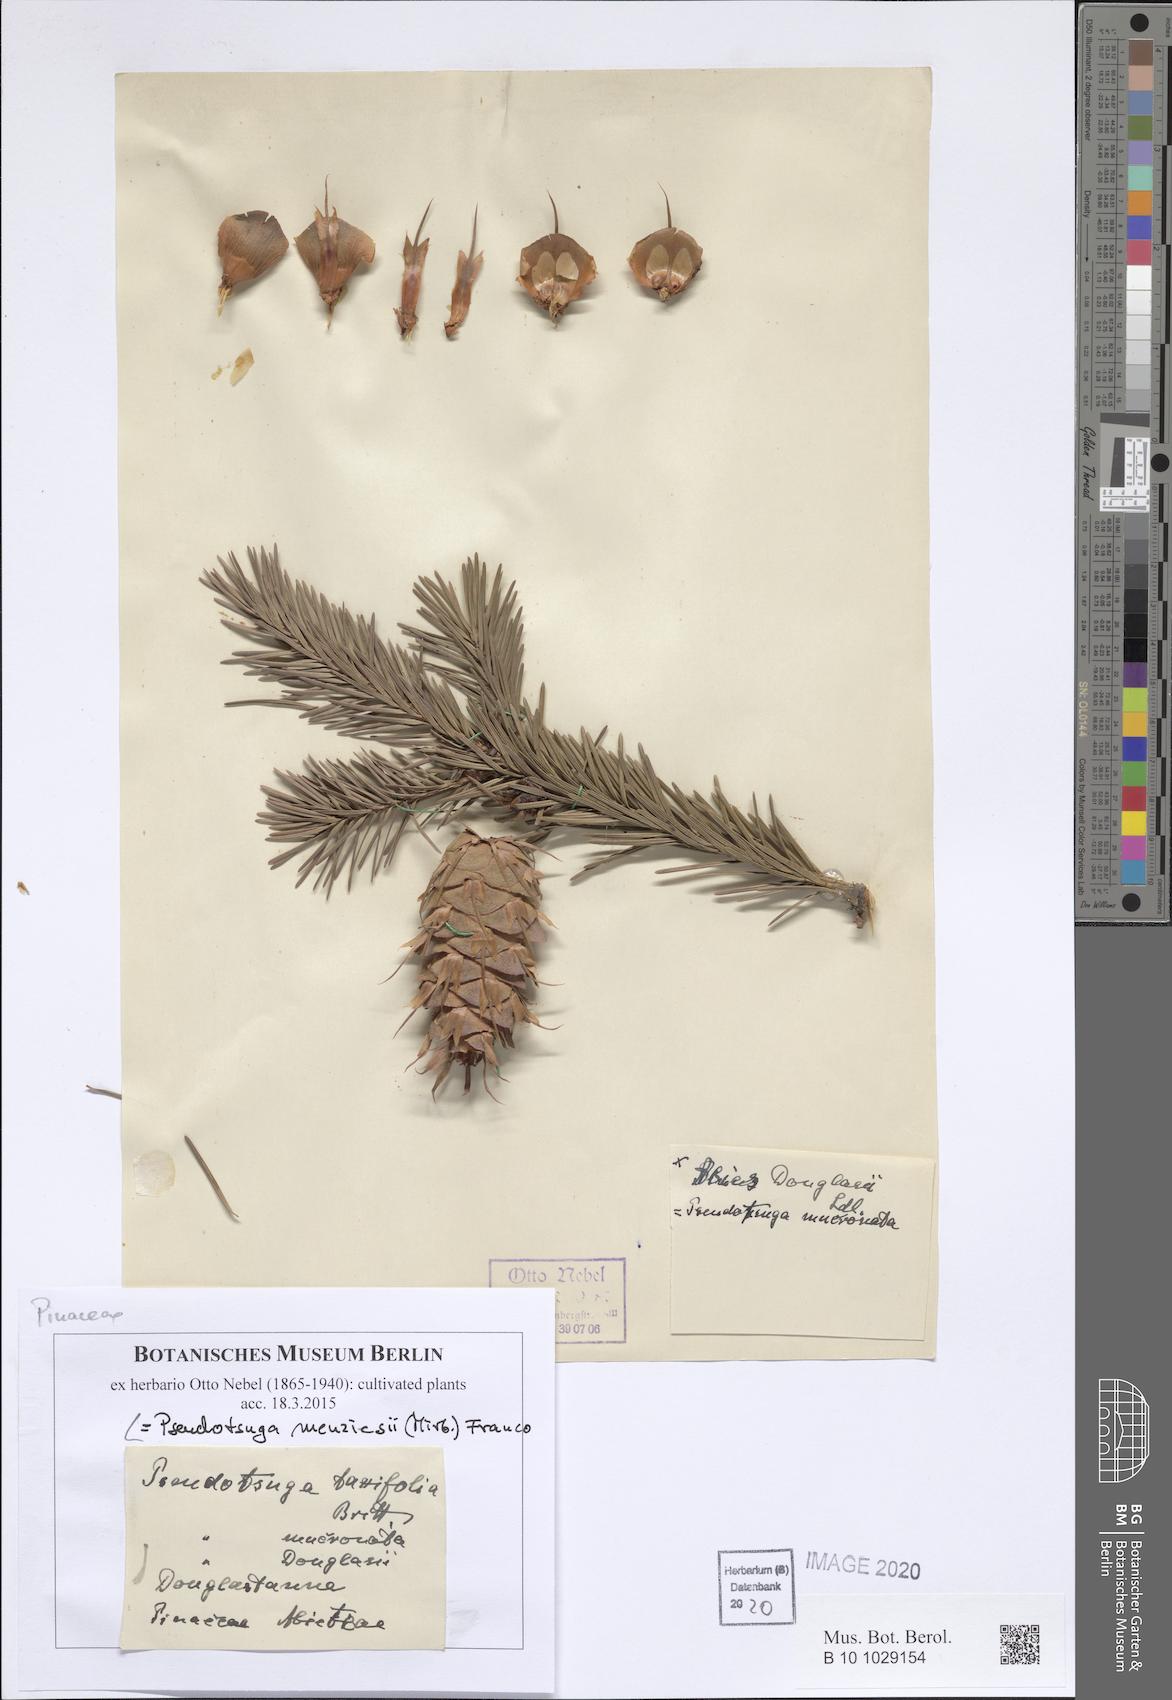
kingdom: Plantae
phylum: Tracheophyta
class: Pinopsida
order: Pinales
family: Pinaceae
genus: Pseudotsuga
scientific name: Pseudotsuga menziesii
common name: Douglas fir
